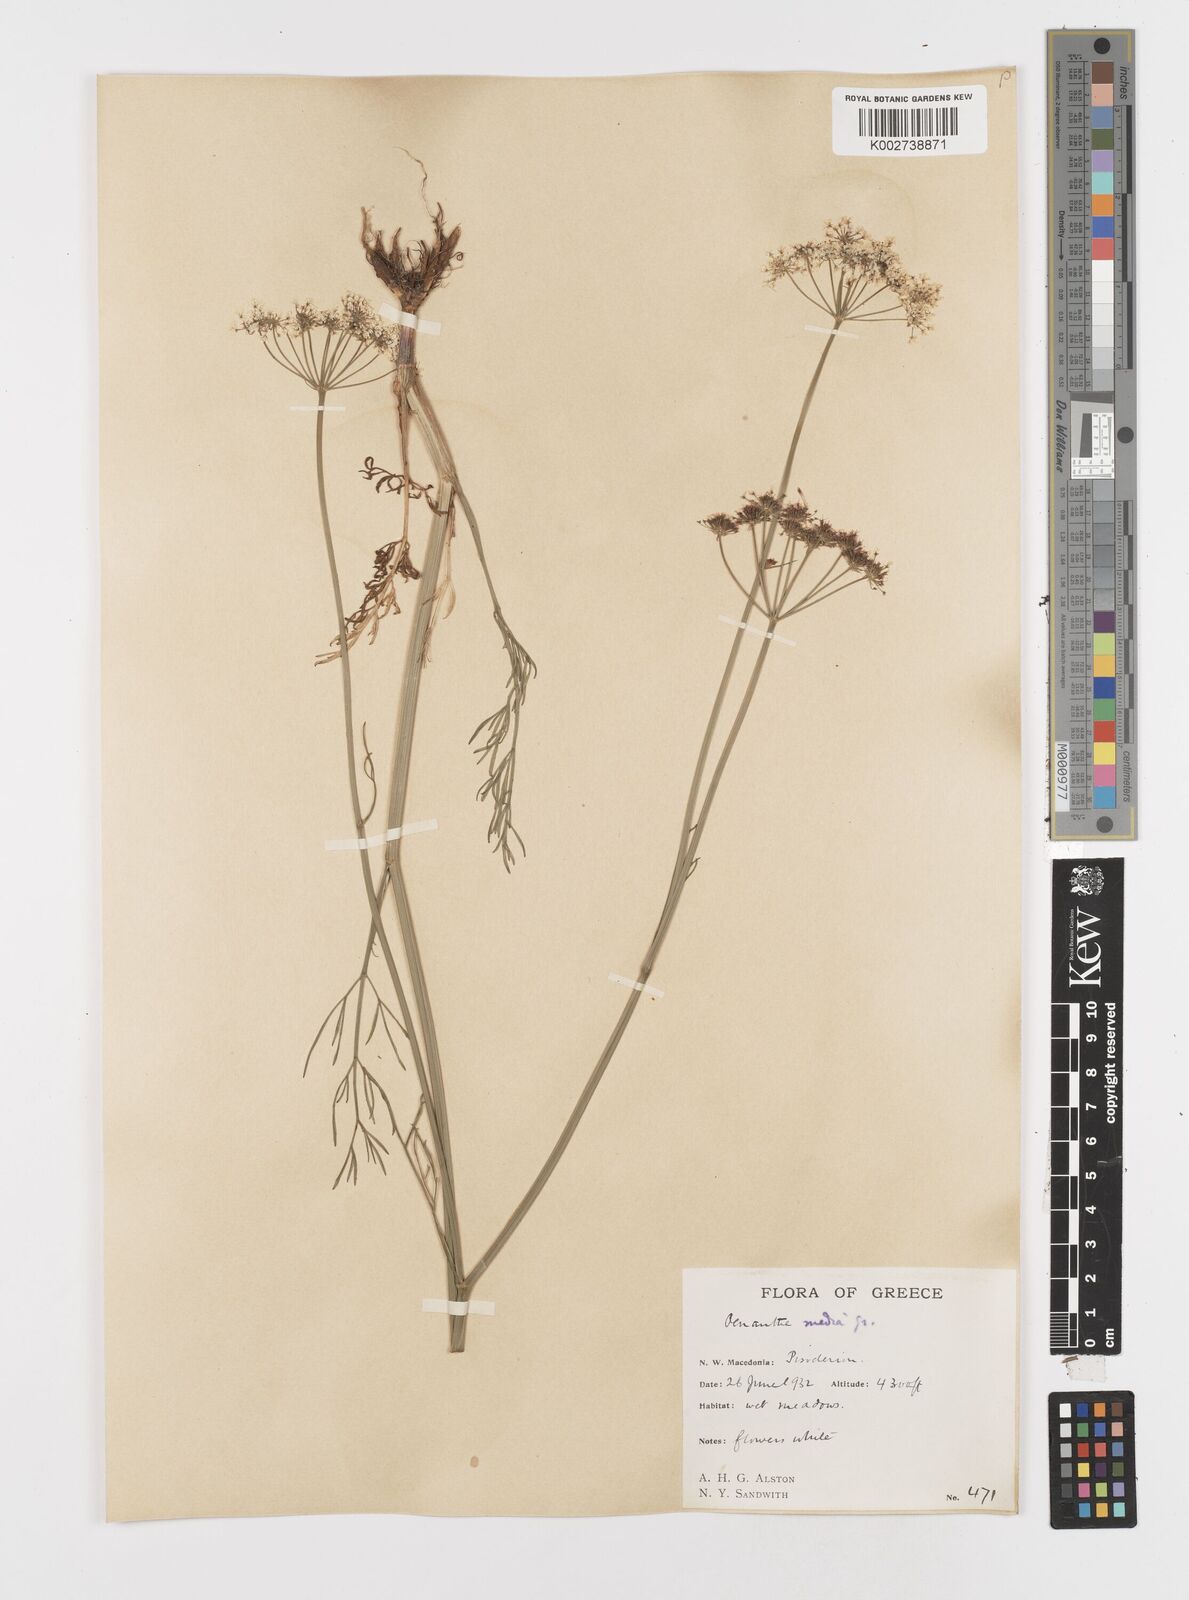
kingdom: Plantae
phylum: Tracheophyta
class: Magnoliopsida
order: Apiales
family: Apiaceae
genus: Oenanthe
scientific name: Oenanthe silaifolia
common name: Narrow-leaved water-dropwort
